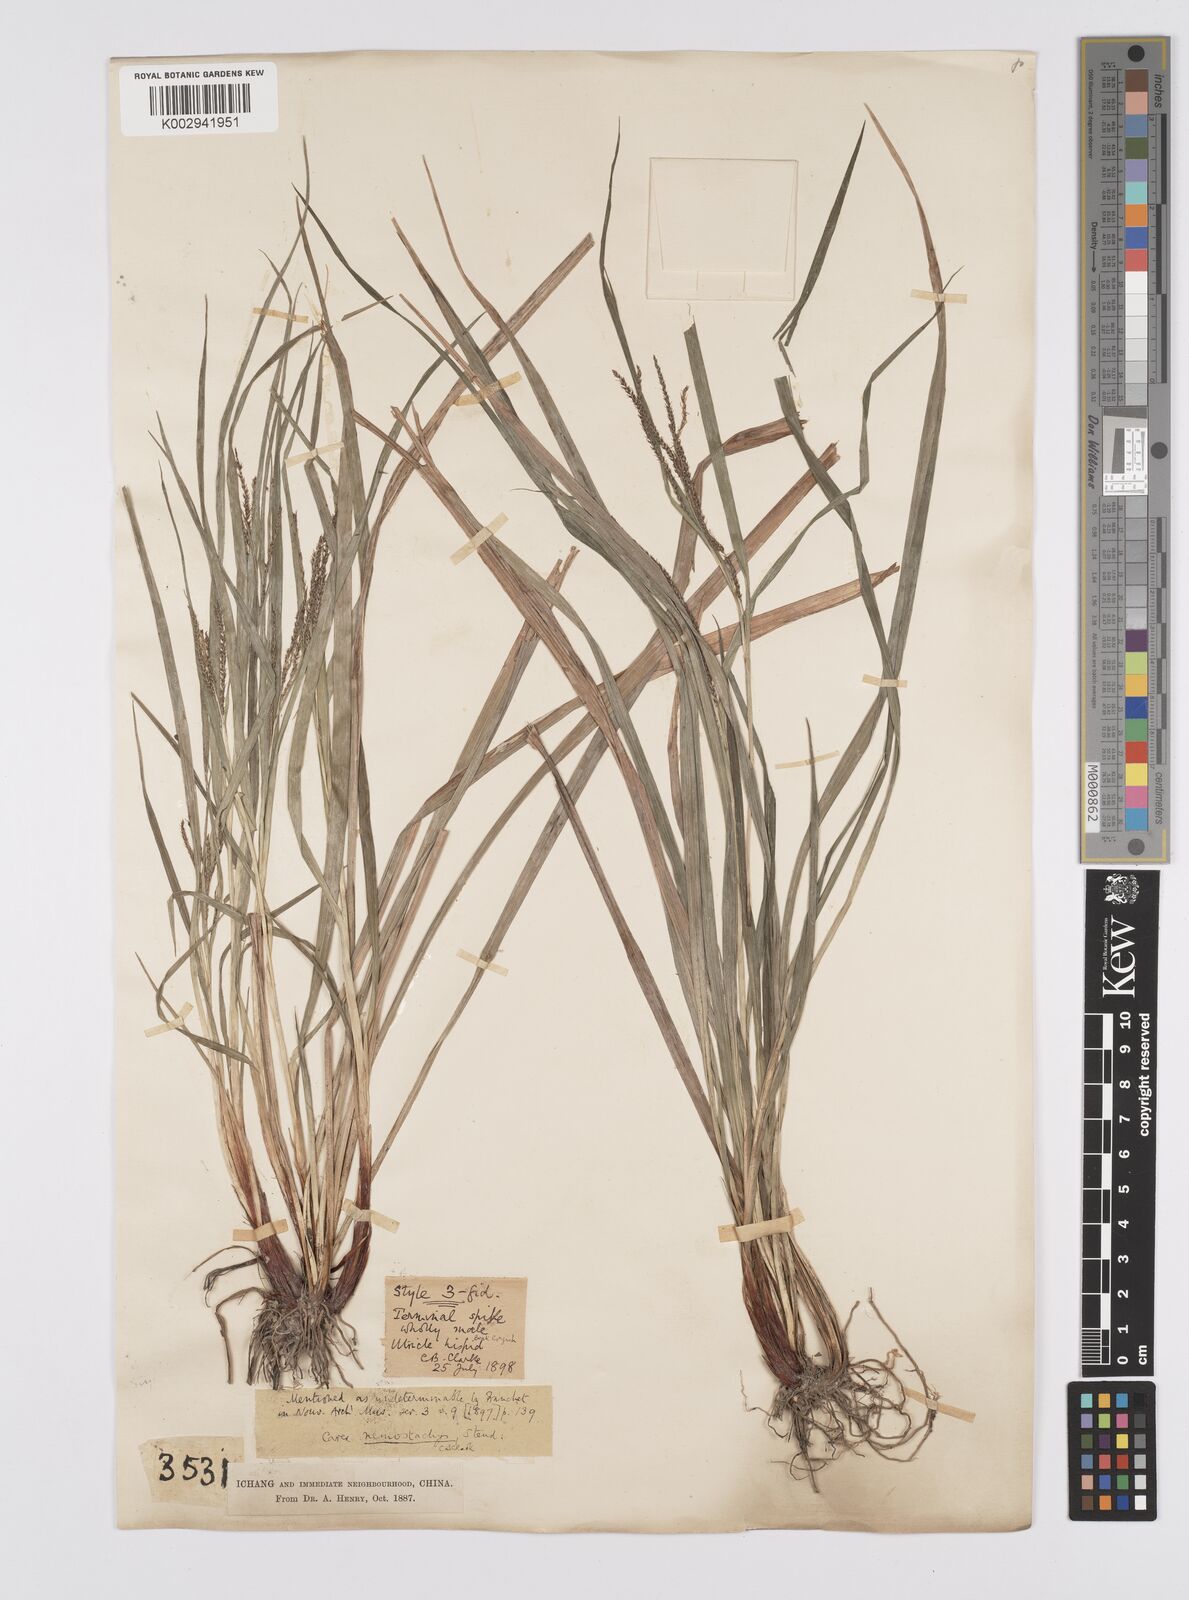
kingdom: Plantae
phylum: Tracheophyta
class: Liliopsida
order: Poales
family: Cyperaceae
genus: Carex
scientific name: Carex nemostachys
